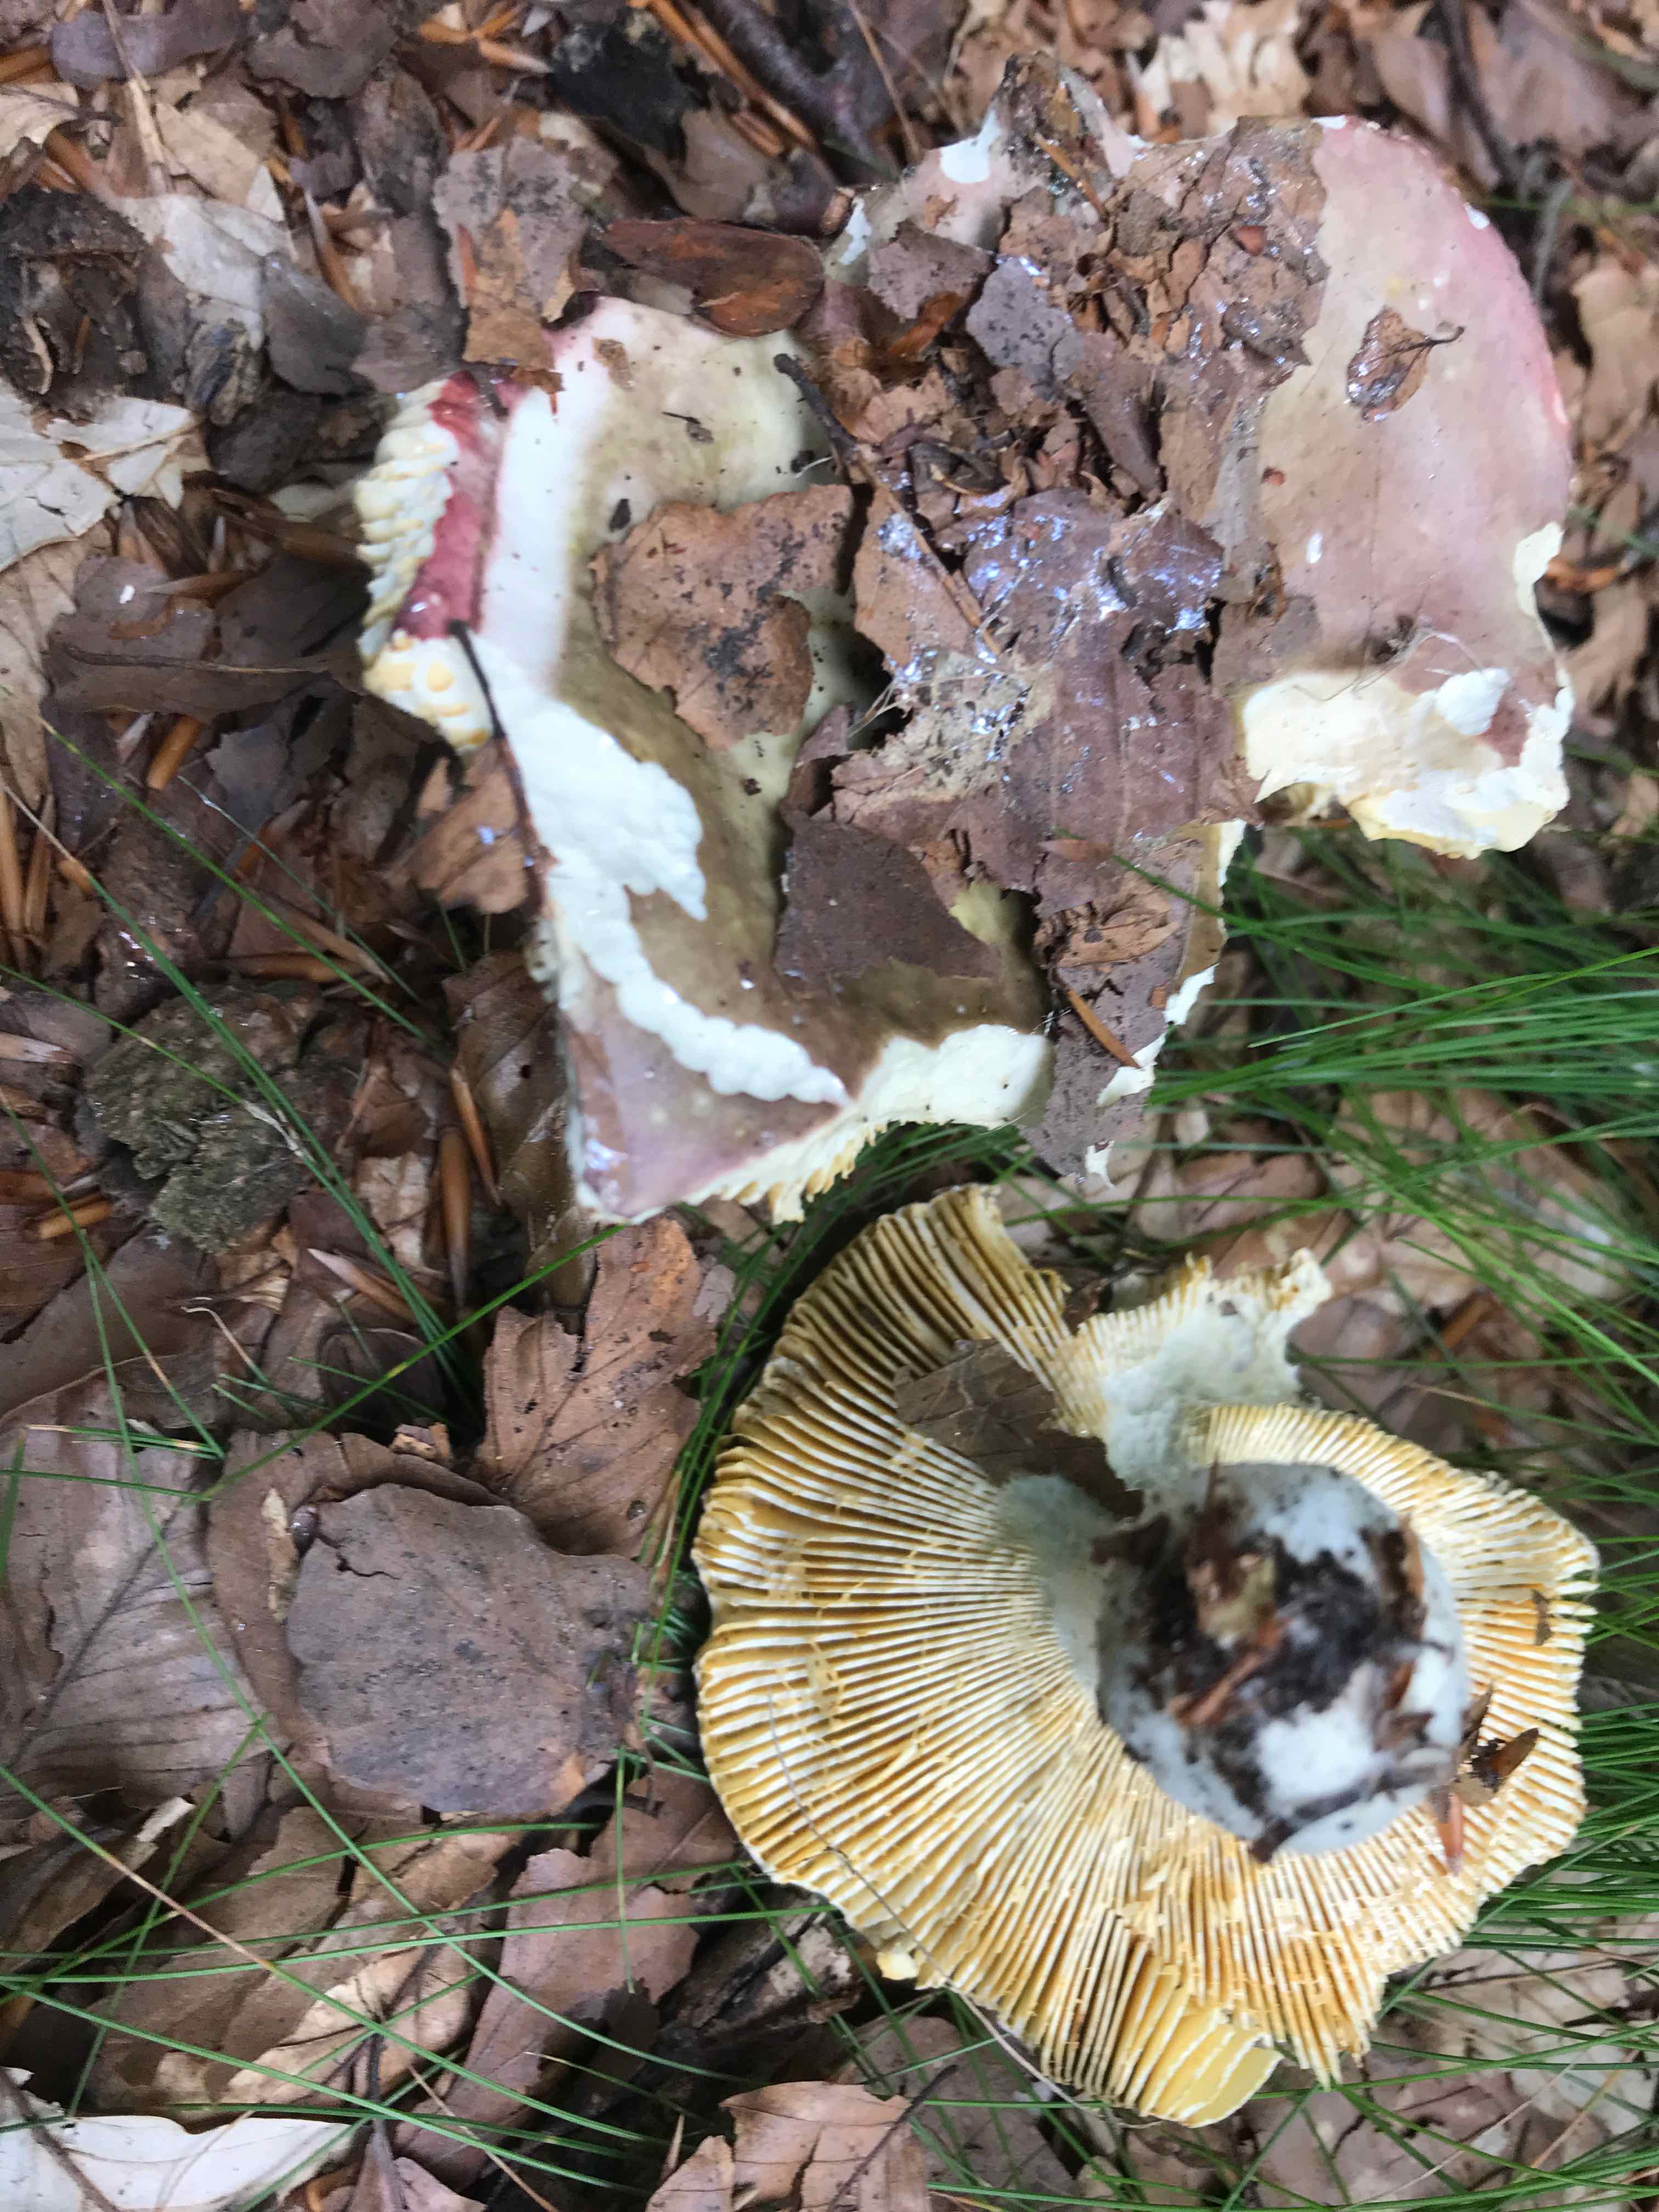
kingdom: Fungi
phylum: Basidiomycota
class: Agaricomycetes
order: Russulales
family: Russulaceae
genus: Russula
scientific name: Russula romellii
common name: romells skørhat
